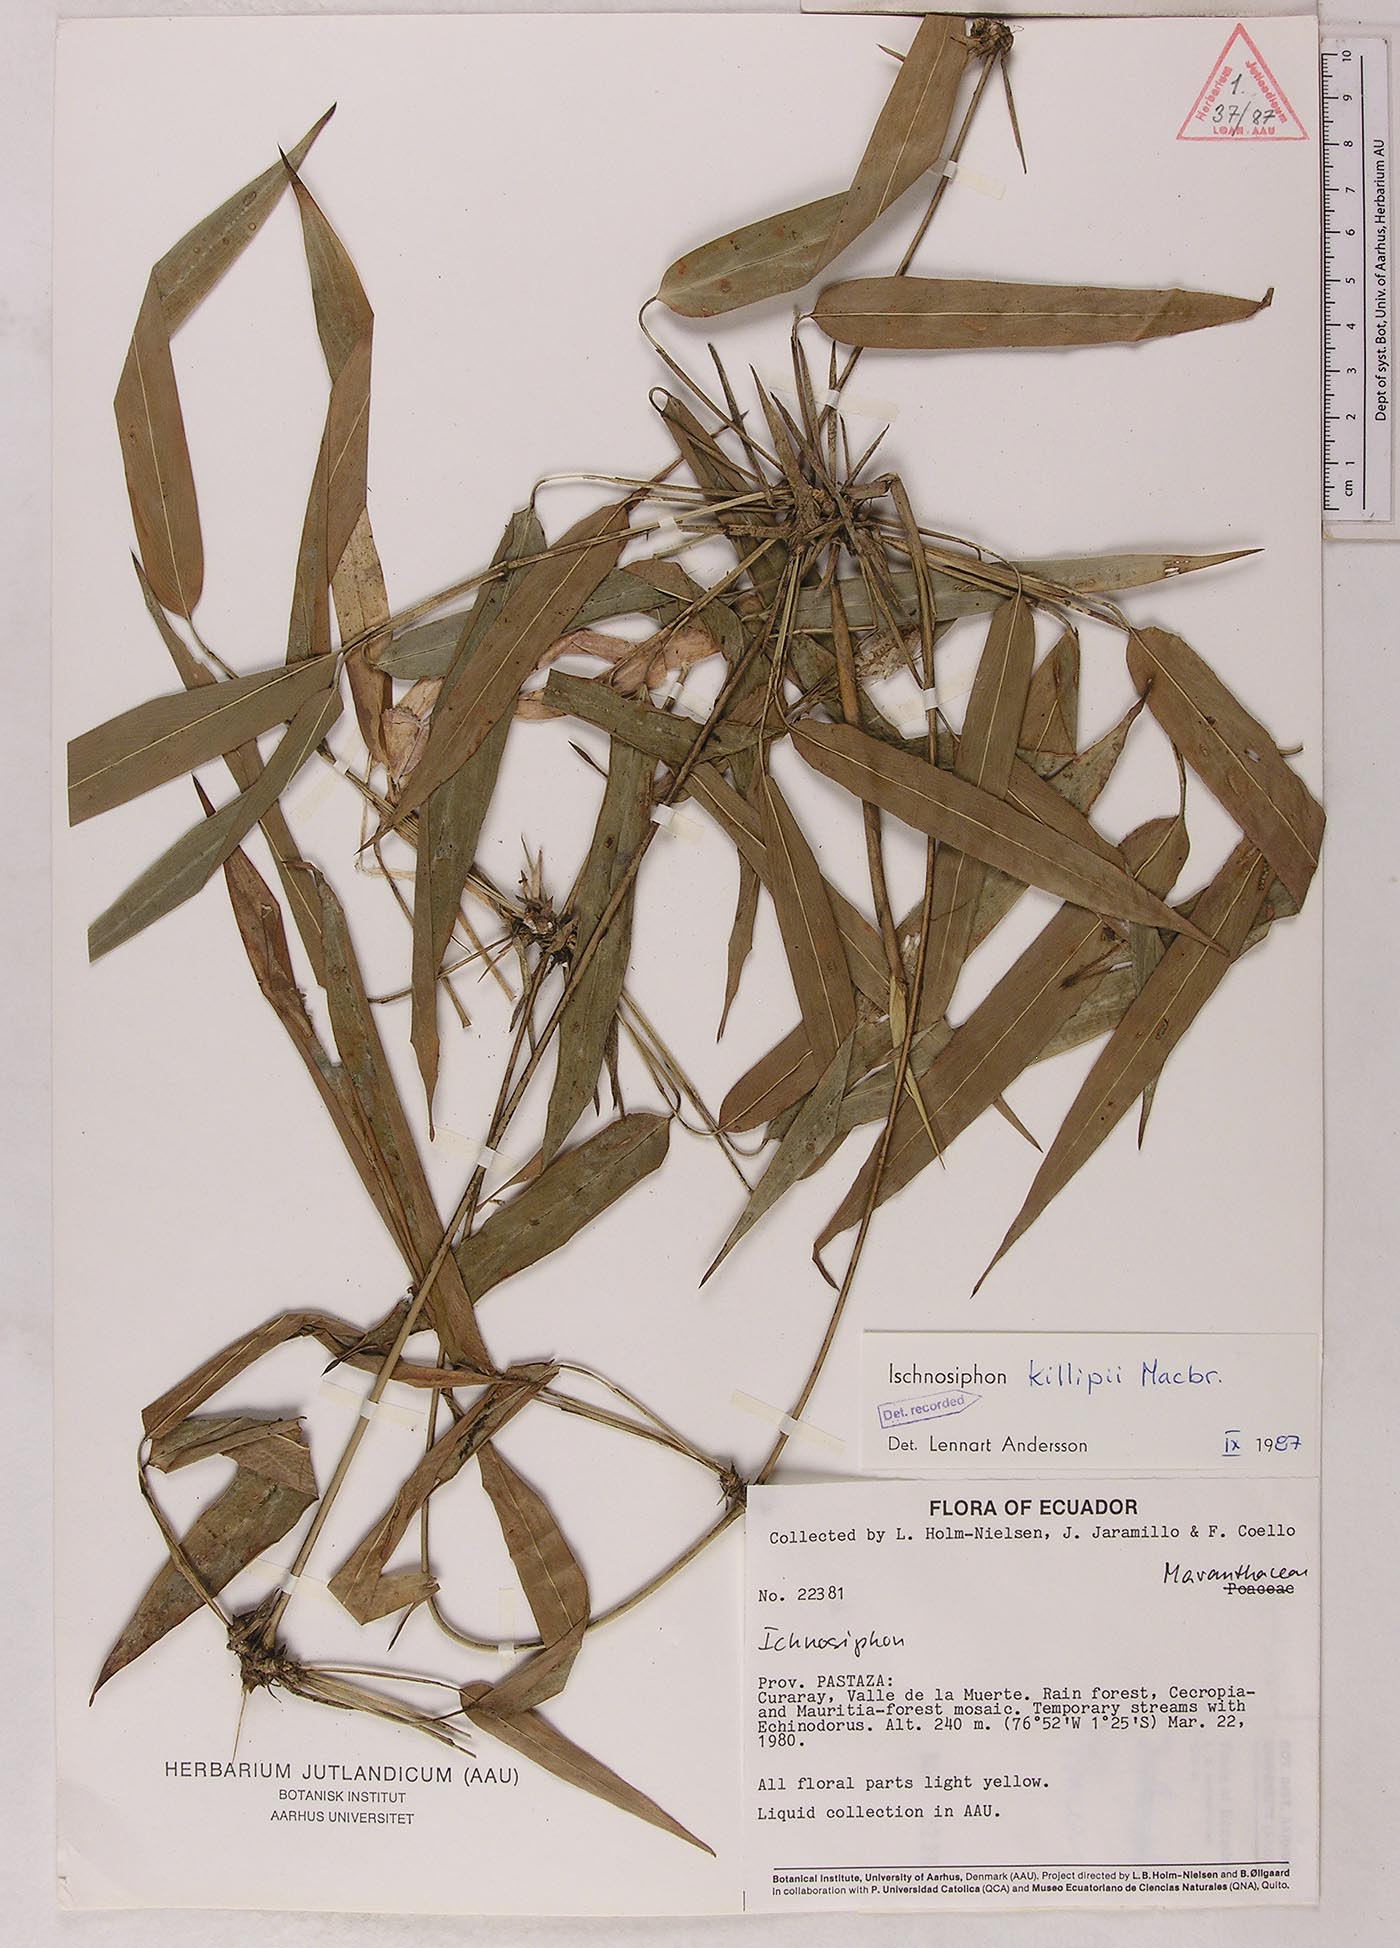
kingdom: Plantae
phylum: Tracheophyta
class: Liliopsida
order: Zingiberales
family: Marantaceae
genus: Ischnosiphon
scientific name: Ischnosiphon killipii
